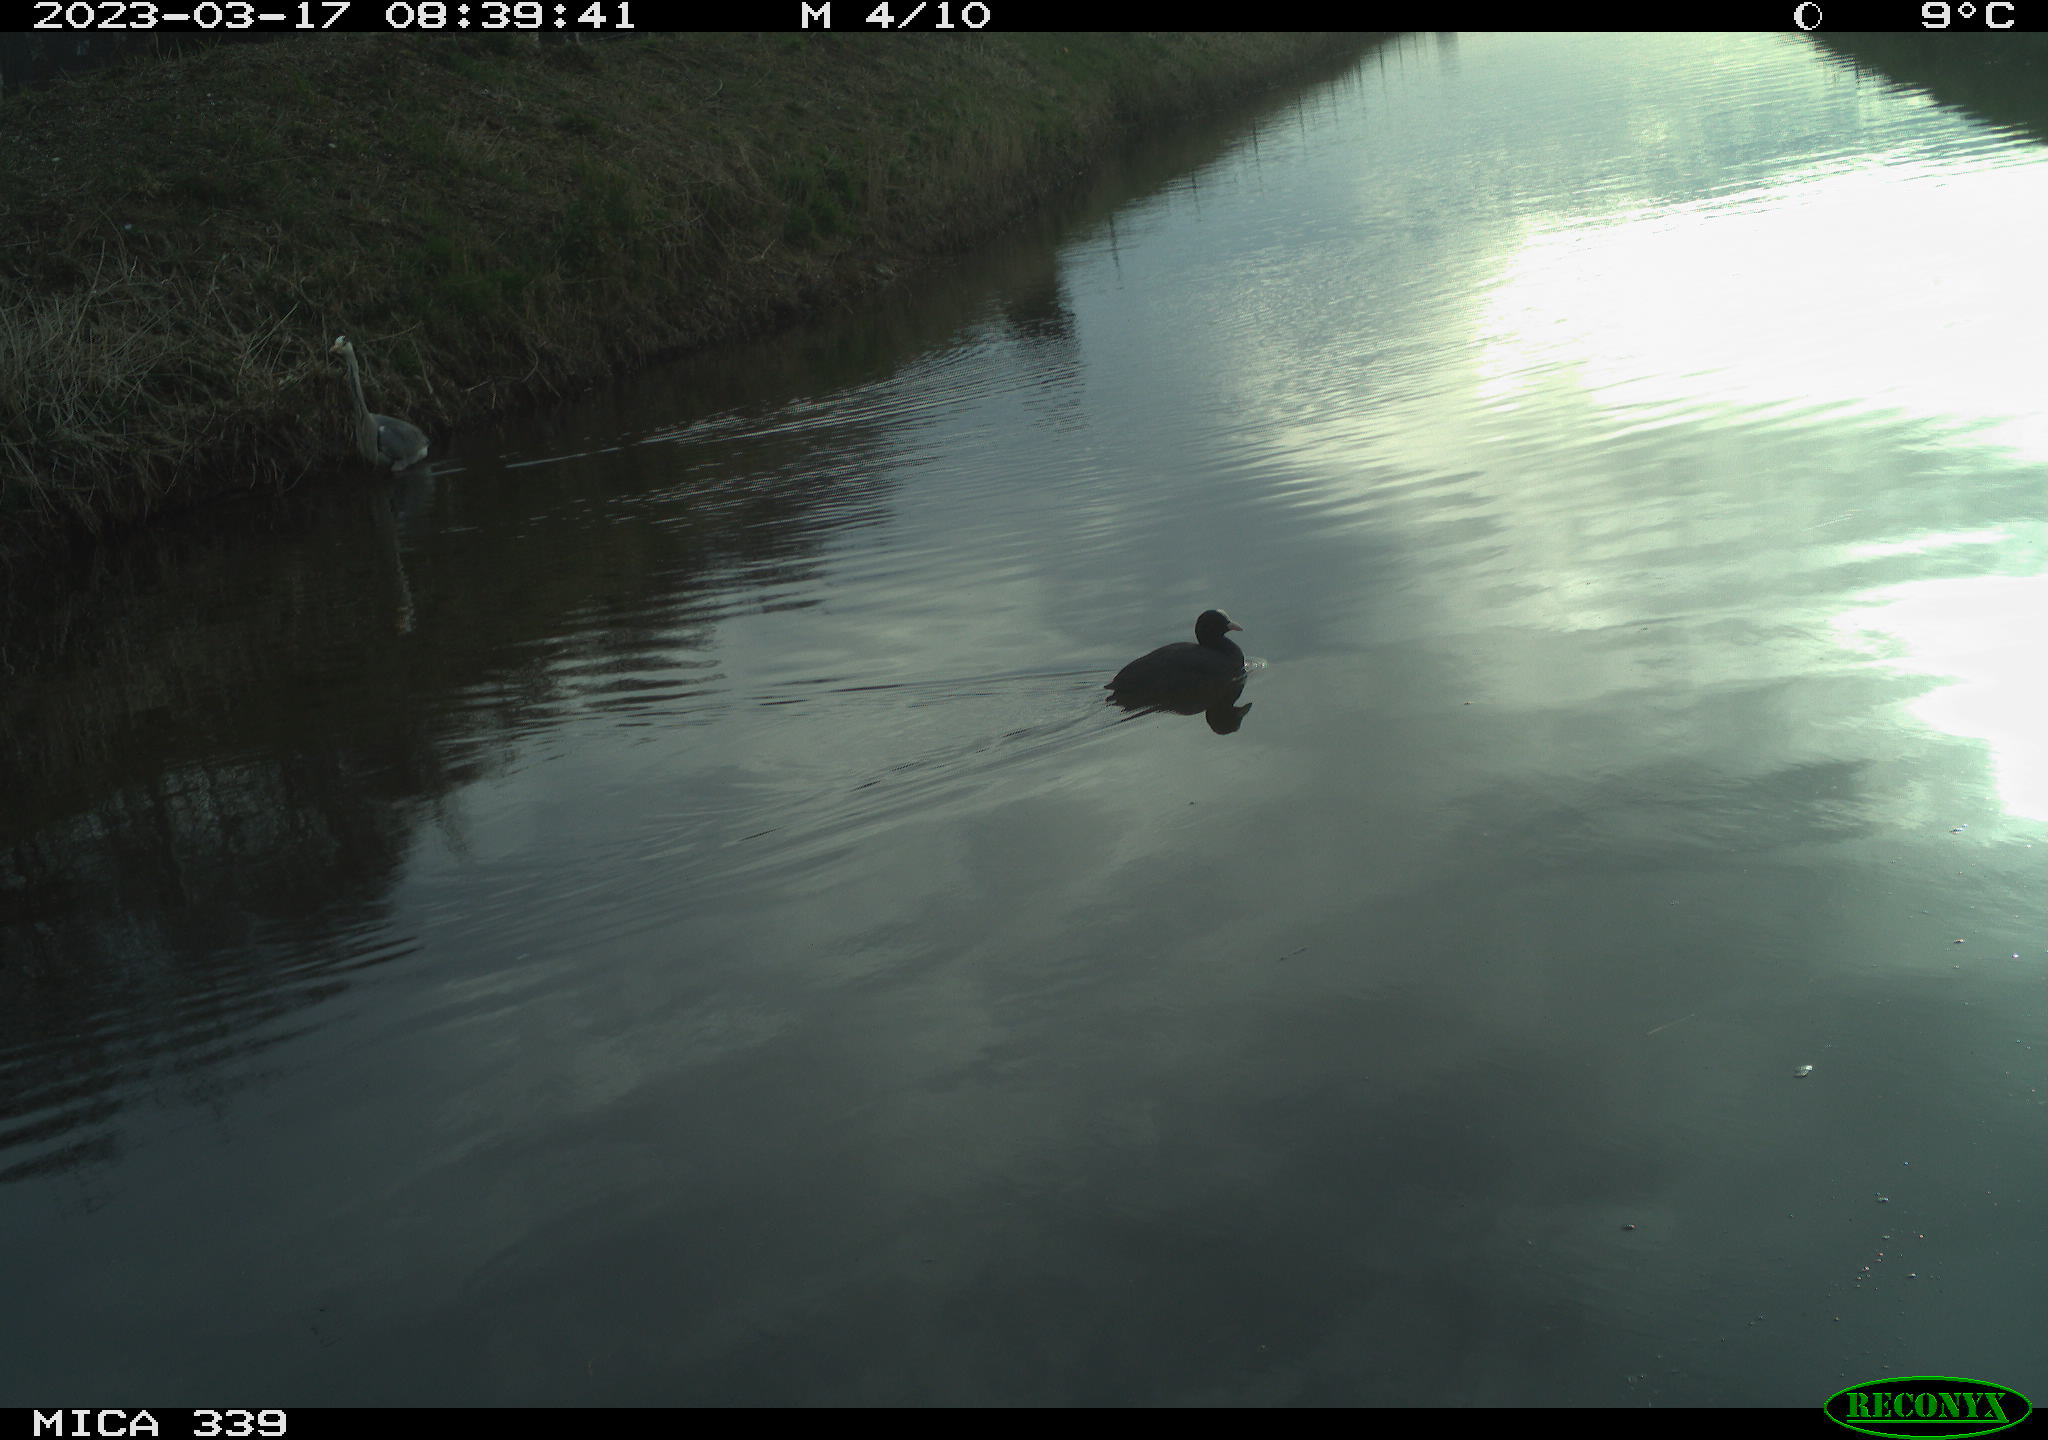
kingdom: Animalia
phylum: Chordata
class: Aves
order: Pelecaniformes
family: Ardeidae
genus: Ardea
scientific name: Ardea
